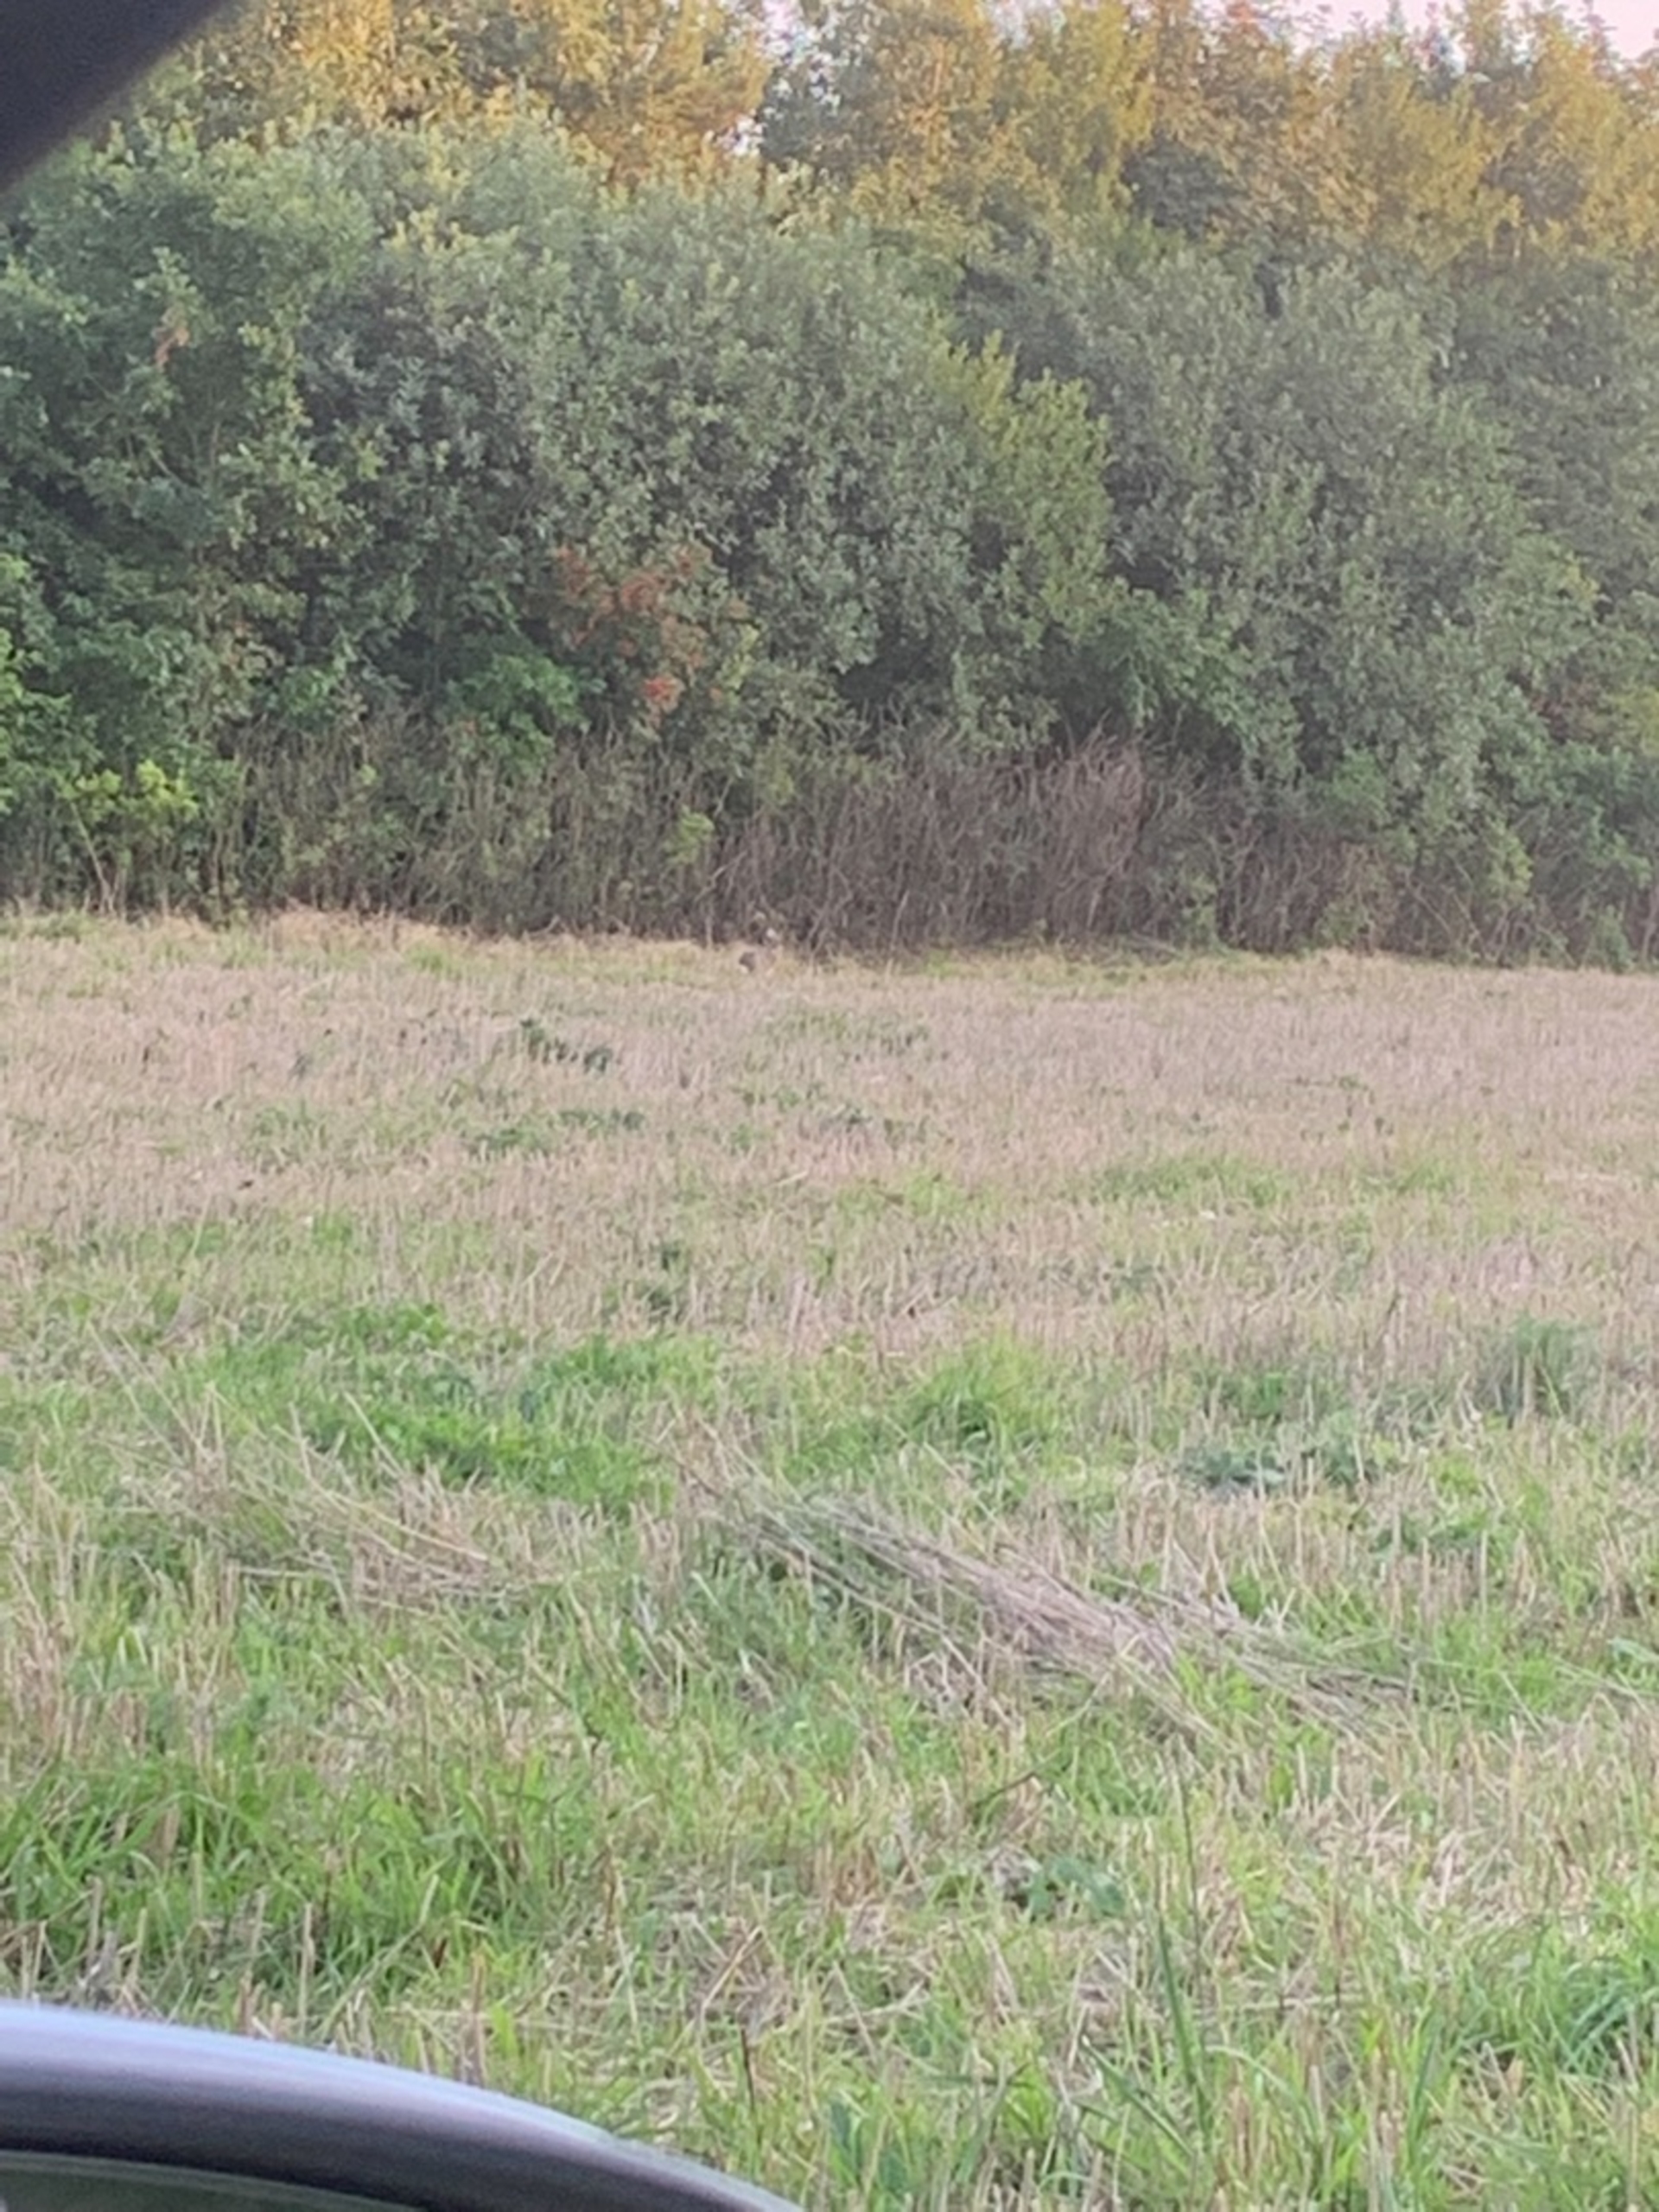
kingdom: Animalia
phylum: Chordata
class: Mammalia
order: Lagomorpha
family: Leporidae
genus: Lepus
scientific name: Lepus europaeus
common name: Hare
